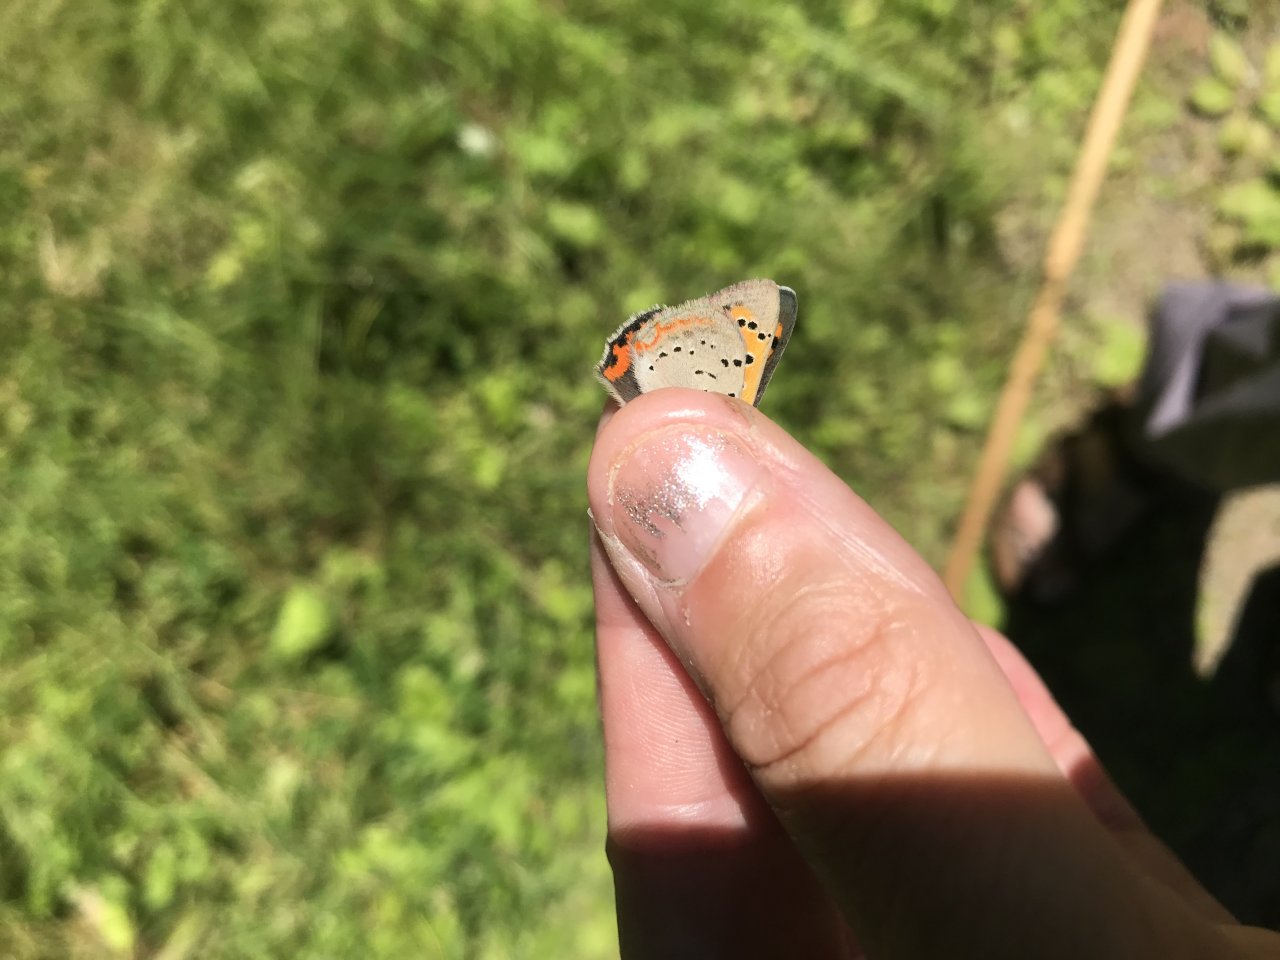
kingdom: Animalia
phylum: Arthropoda
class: Insecta
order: Lepidoptera
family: Lycaenidae
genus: Lycaena
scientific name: Lycaena phlaeas
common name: American Copper
